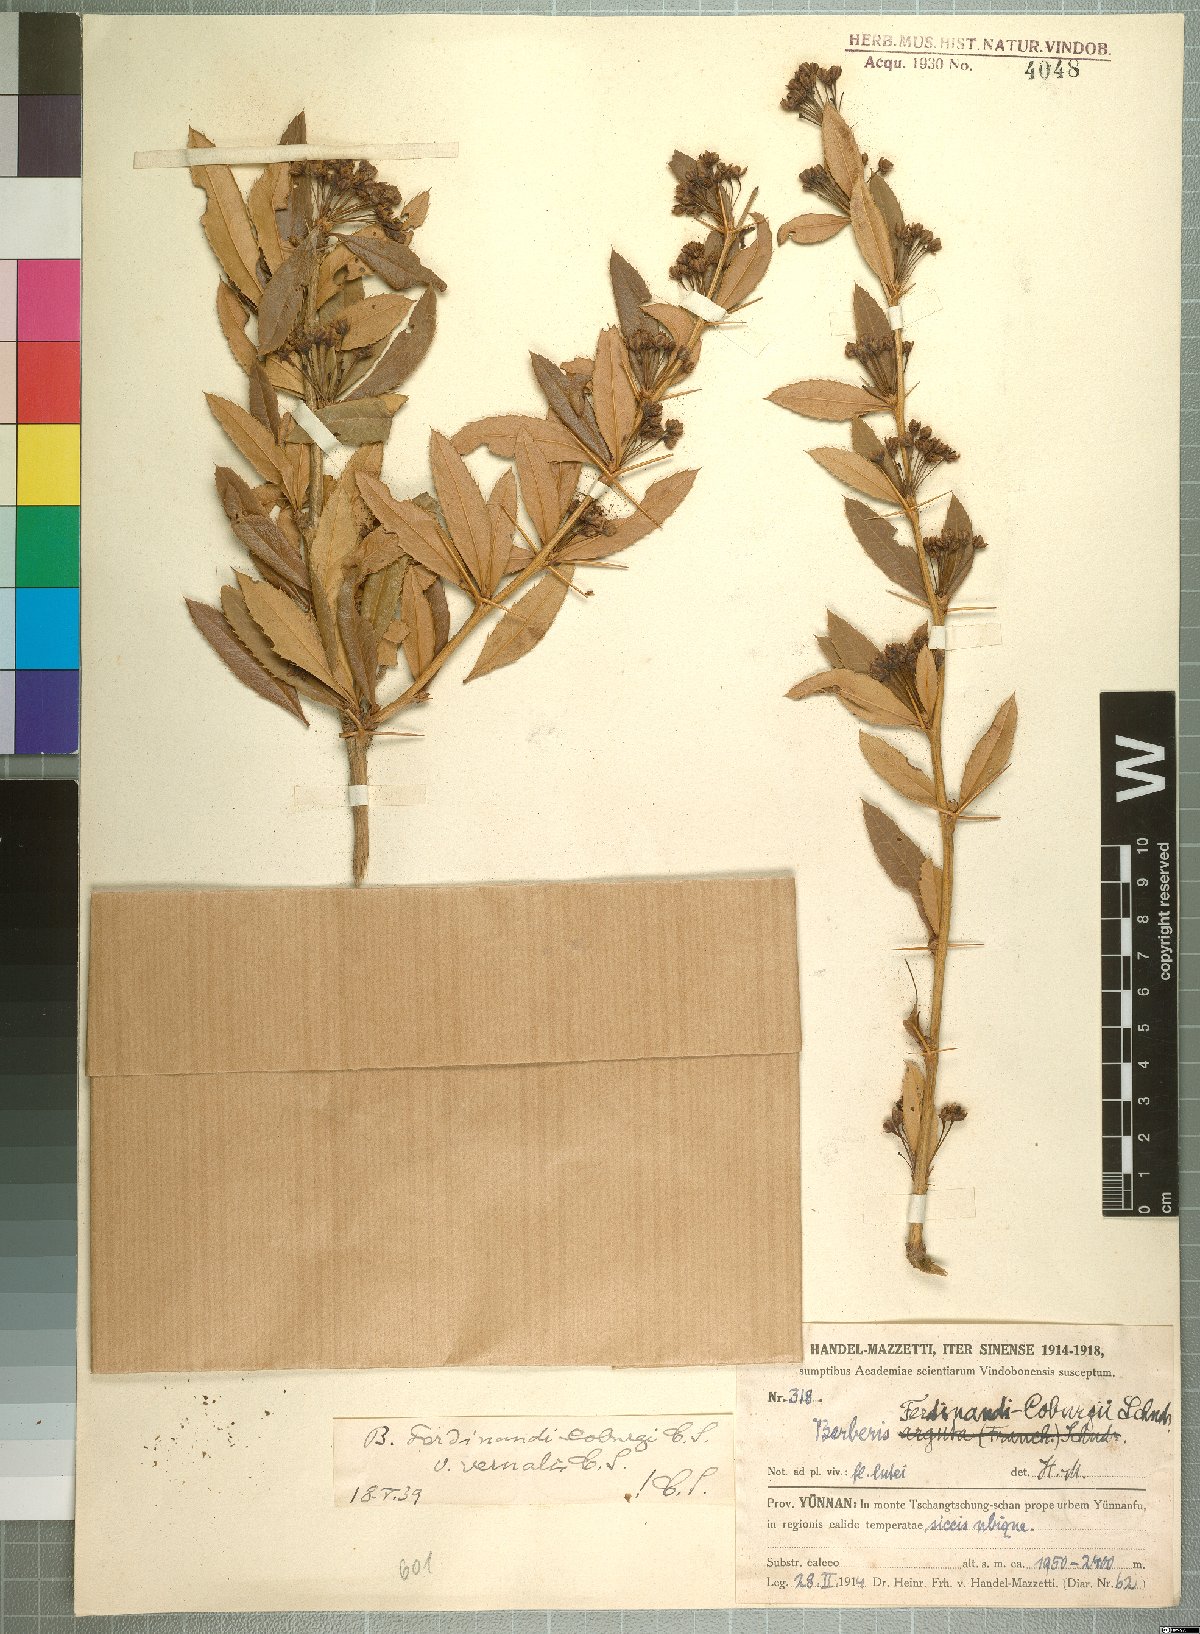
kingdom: Plantae
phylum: Tracheophyta
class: Magnoliopsida
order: Ranunculales
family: Berberidaceae
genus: Berberis
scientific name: Berberis ferdinandi-coburgii
